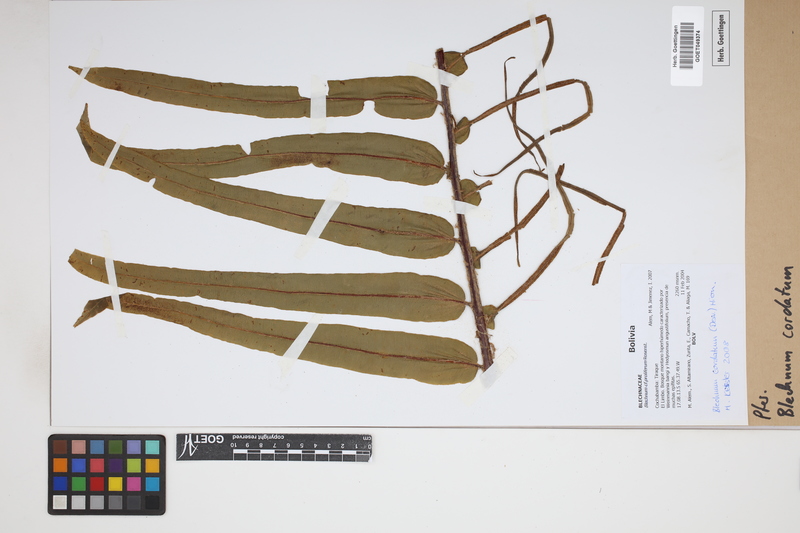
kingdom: Plantae
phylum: Tracheophyta
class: Polypodiopsida
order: Polypodiales
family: Blechnaceae
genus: Parablechnum
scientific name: Parablechnum cordatum
